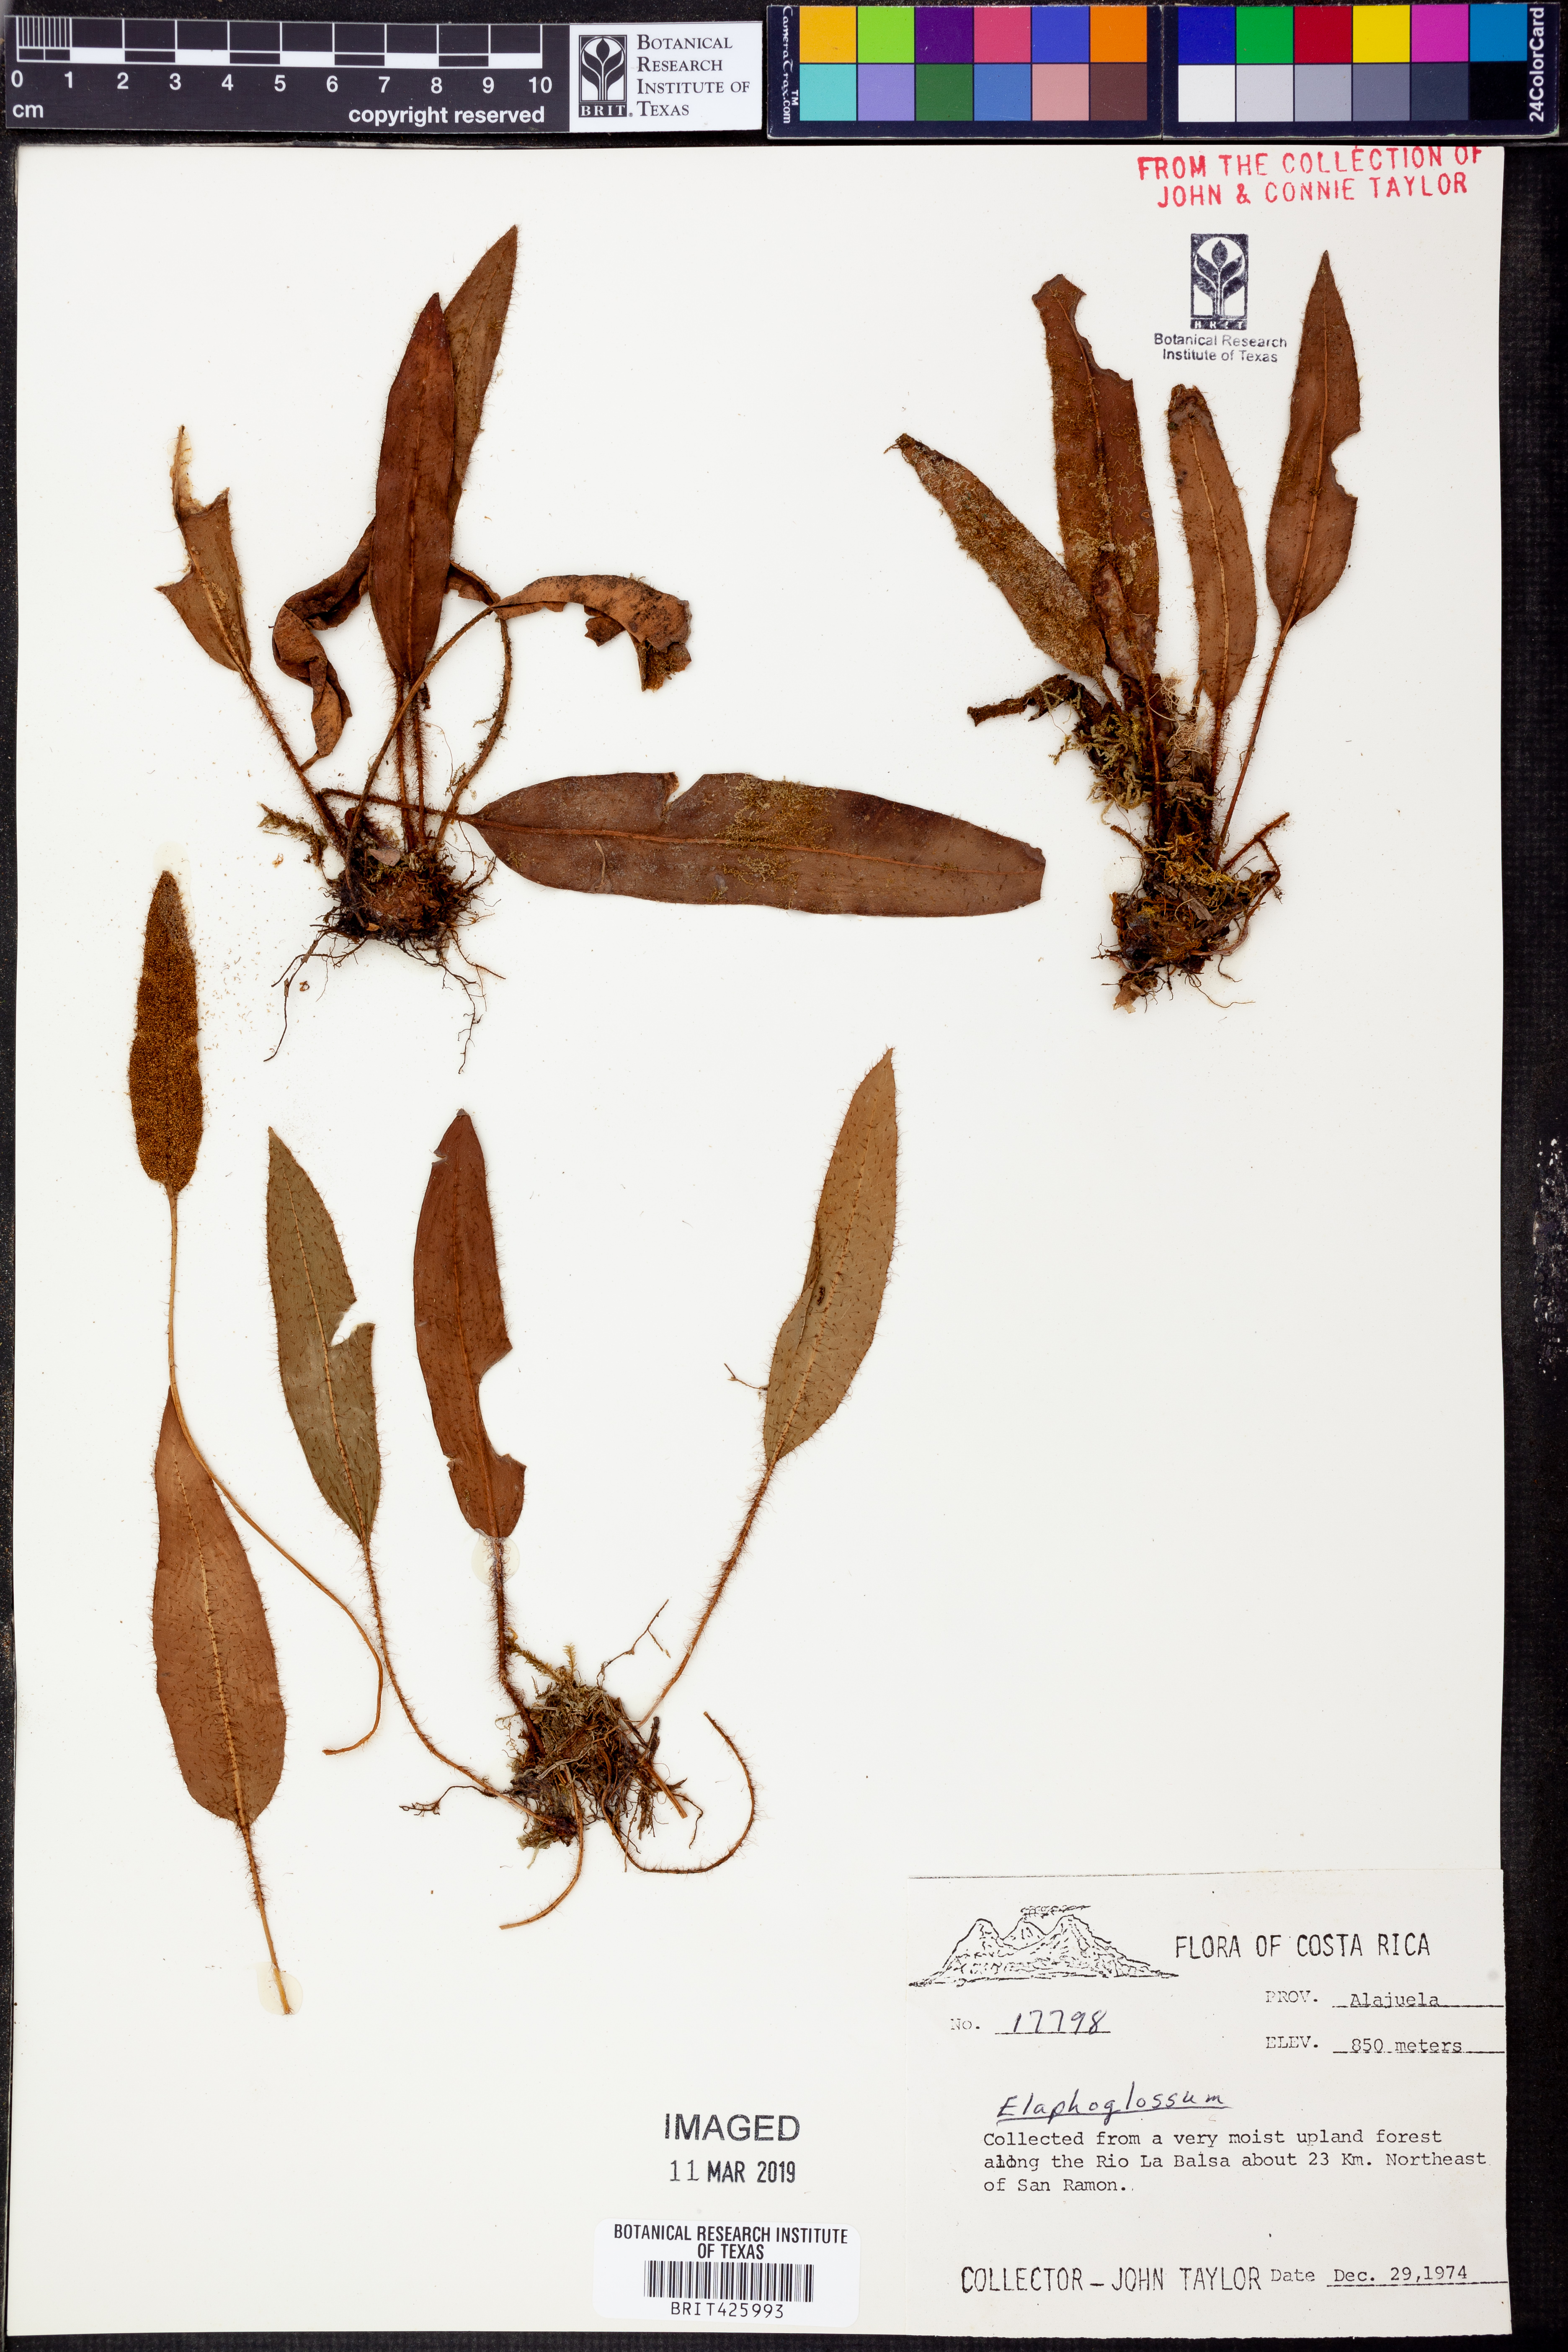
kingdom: Plantae
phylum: Tracheophyta
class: Polypodiopsida
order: Polypodiales
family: Dryopteridaceae
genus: Elaphoglossum
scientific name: Elaphoglossum
